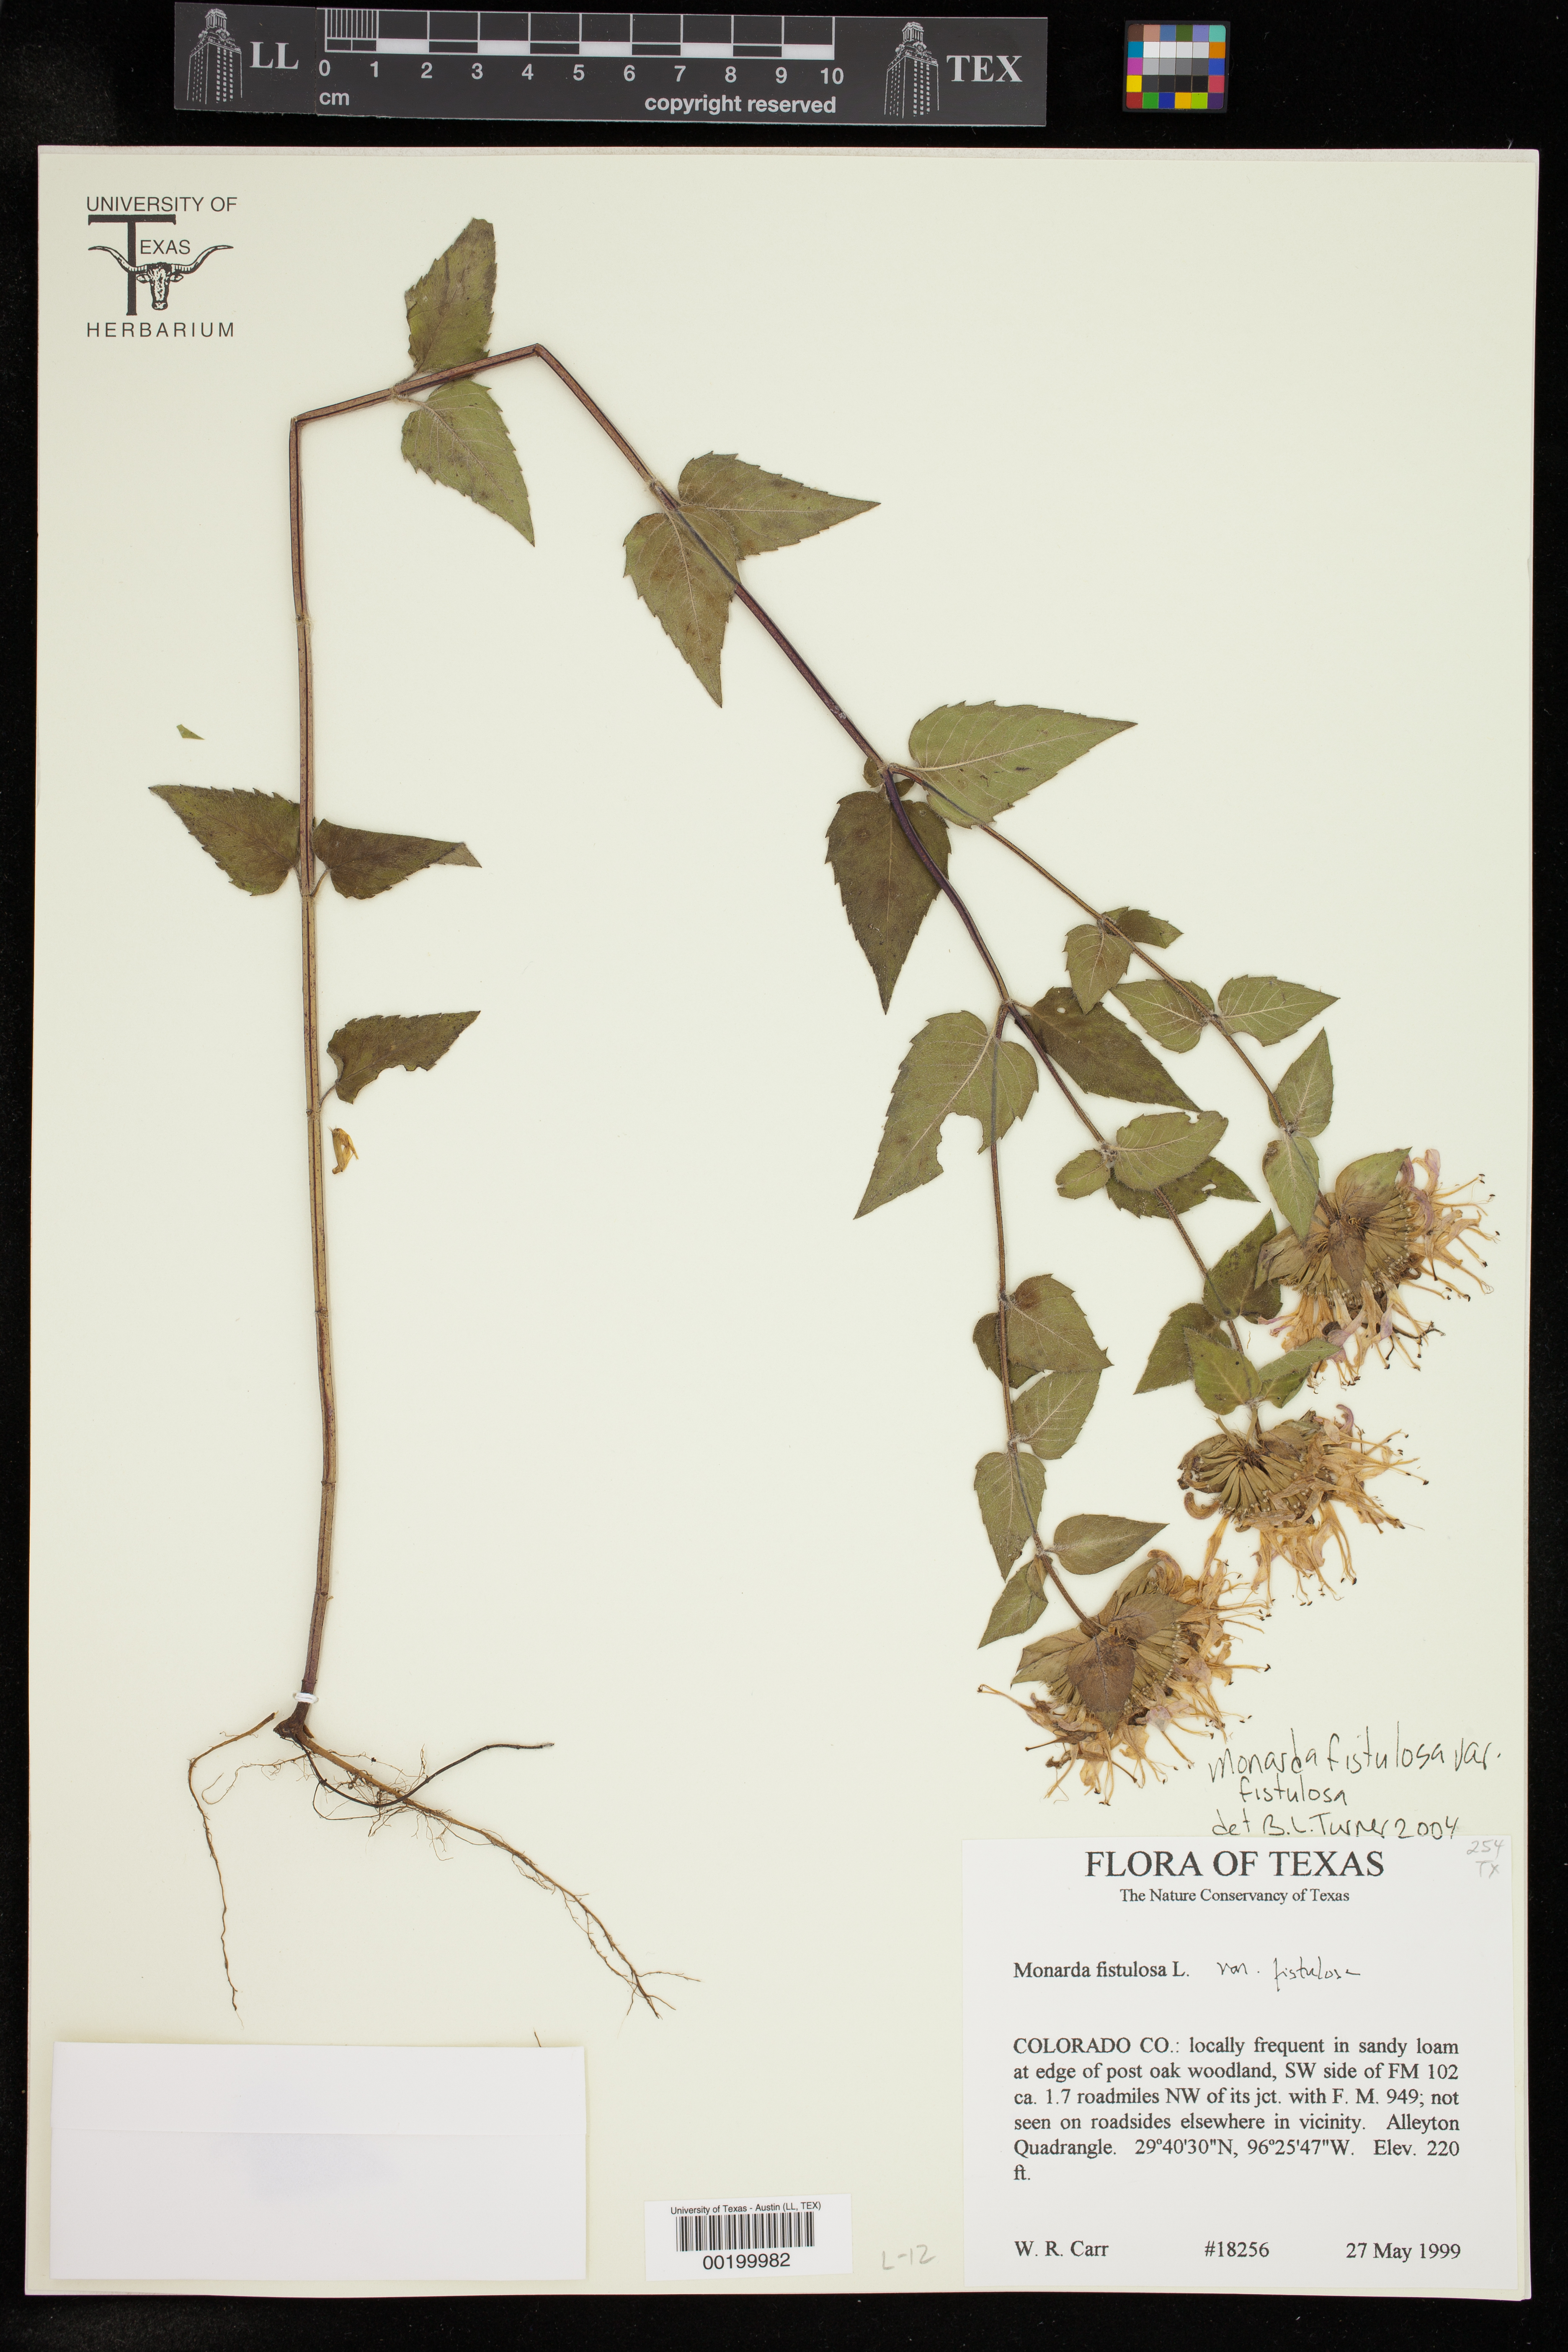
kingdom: Plantae
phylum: Tracheophyta
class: Magnoliopsida
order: Lamiales
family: Lamiaceae
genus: Monarda
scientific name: Monarda fistulosa
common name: Purple beebalm
